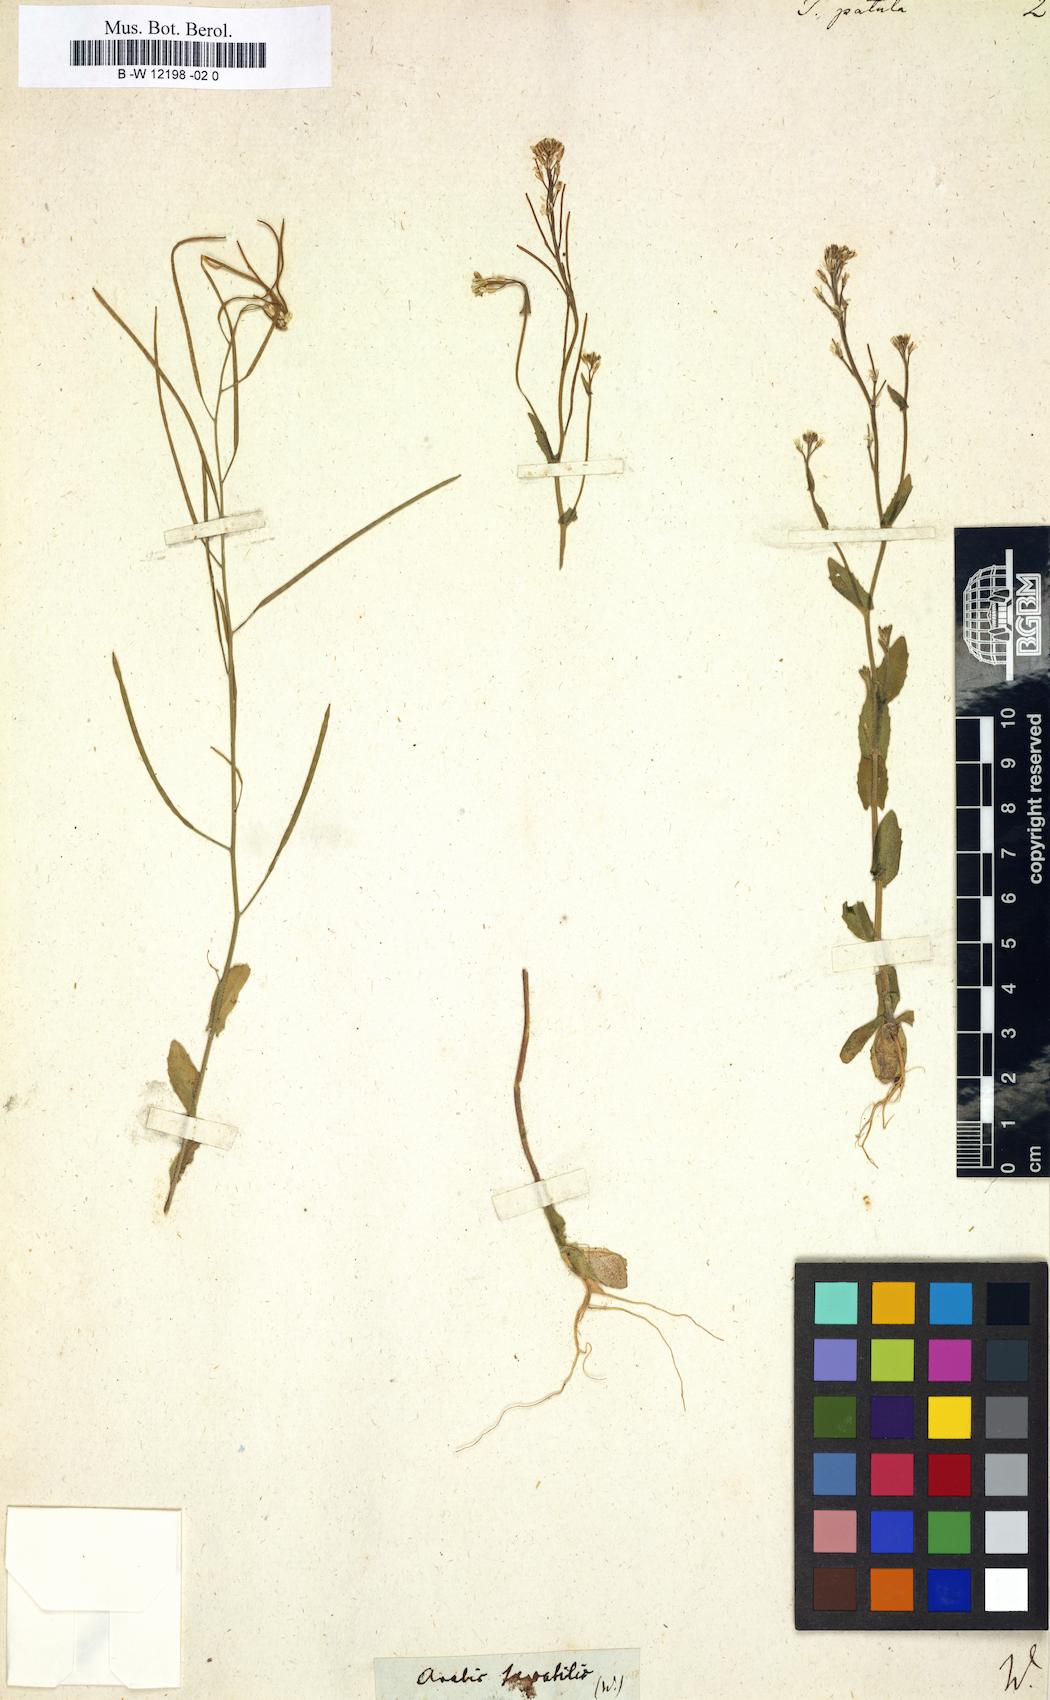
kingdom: Plantae
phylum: Tracheophyta
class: Magnoliopsida
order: Brassicales
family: Brassicaceae
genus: Arabis
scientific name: Arabis auriculata
